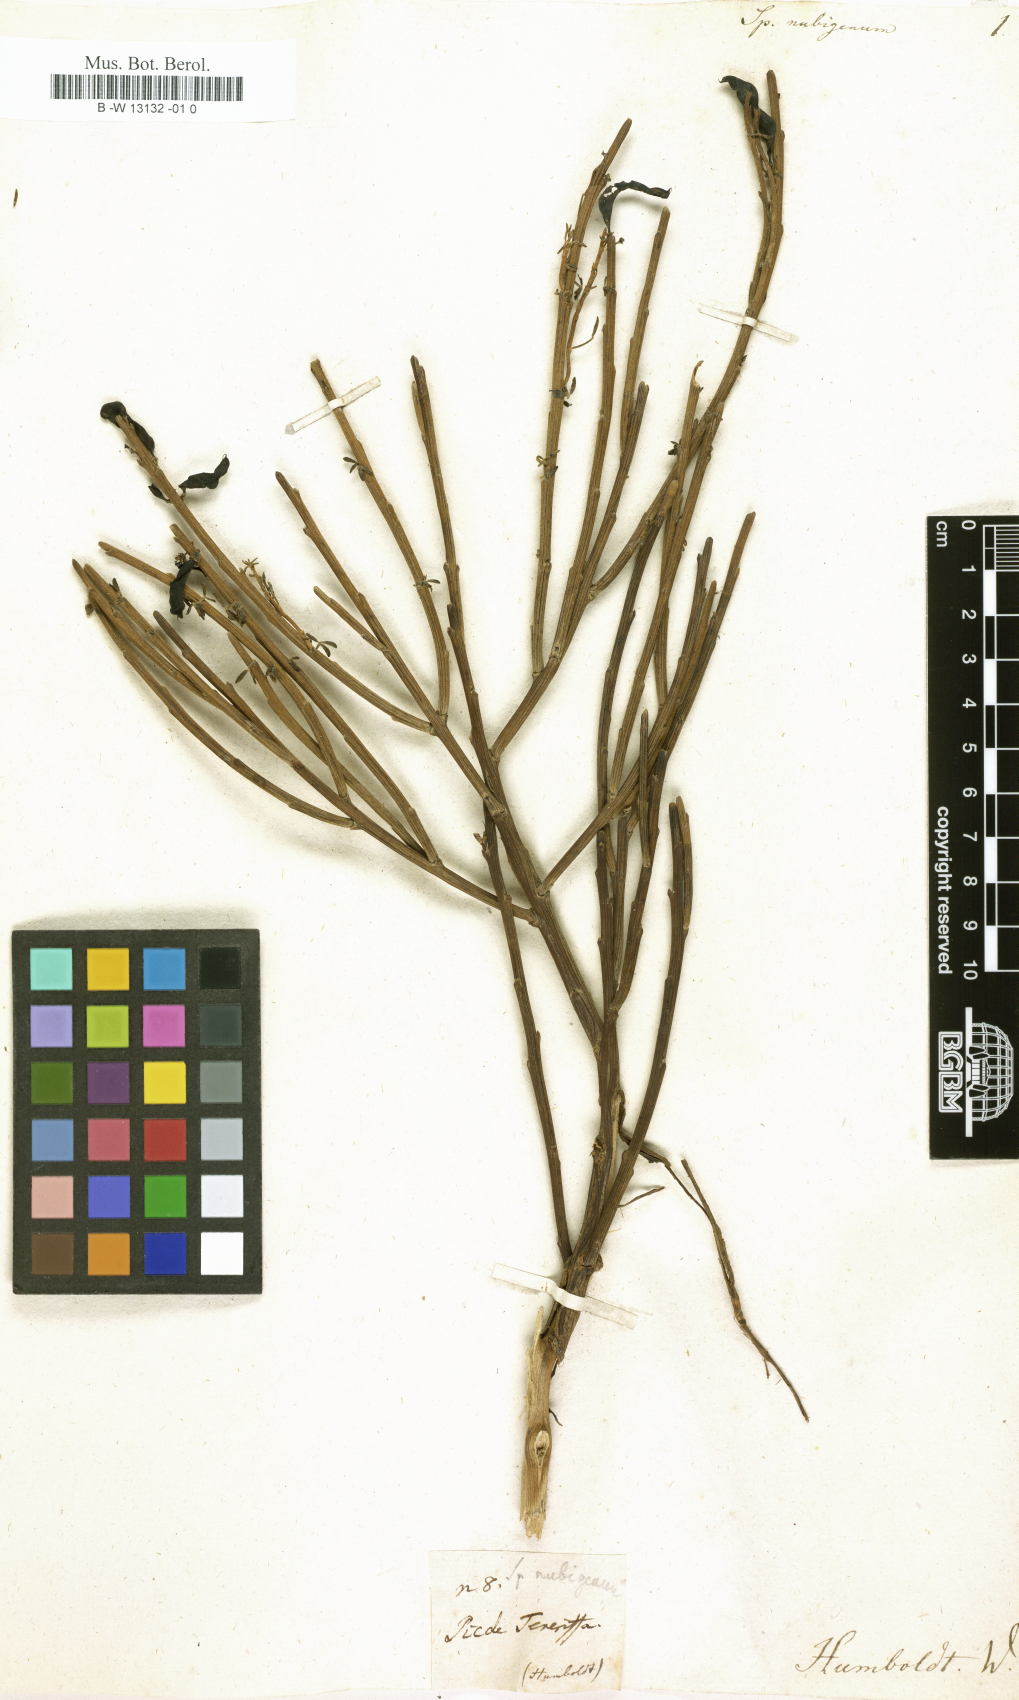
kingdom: Plantae
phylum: Tracheophyta
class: Magnoliopsida
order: Fabales
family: Fabaceae
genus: Cytisus
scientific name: Cytisus supranubius
